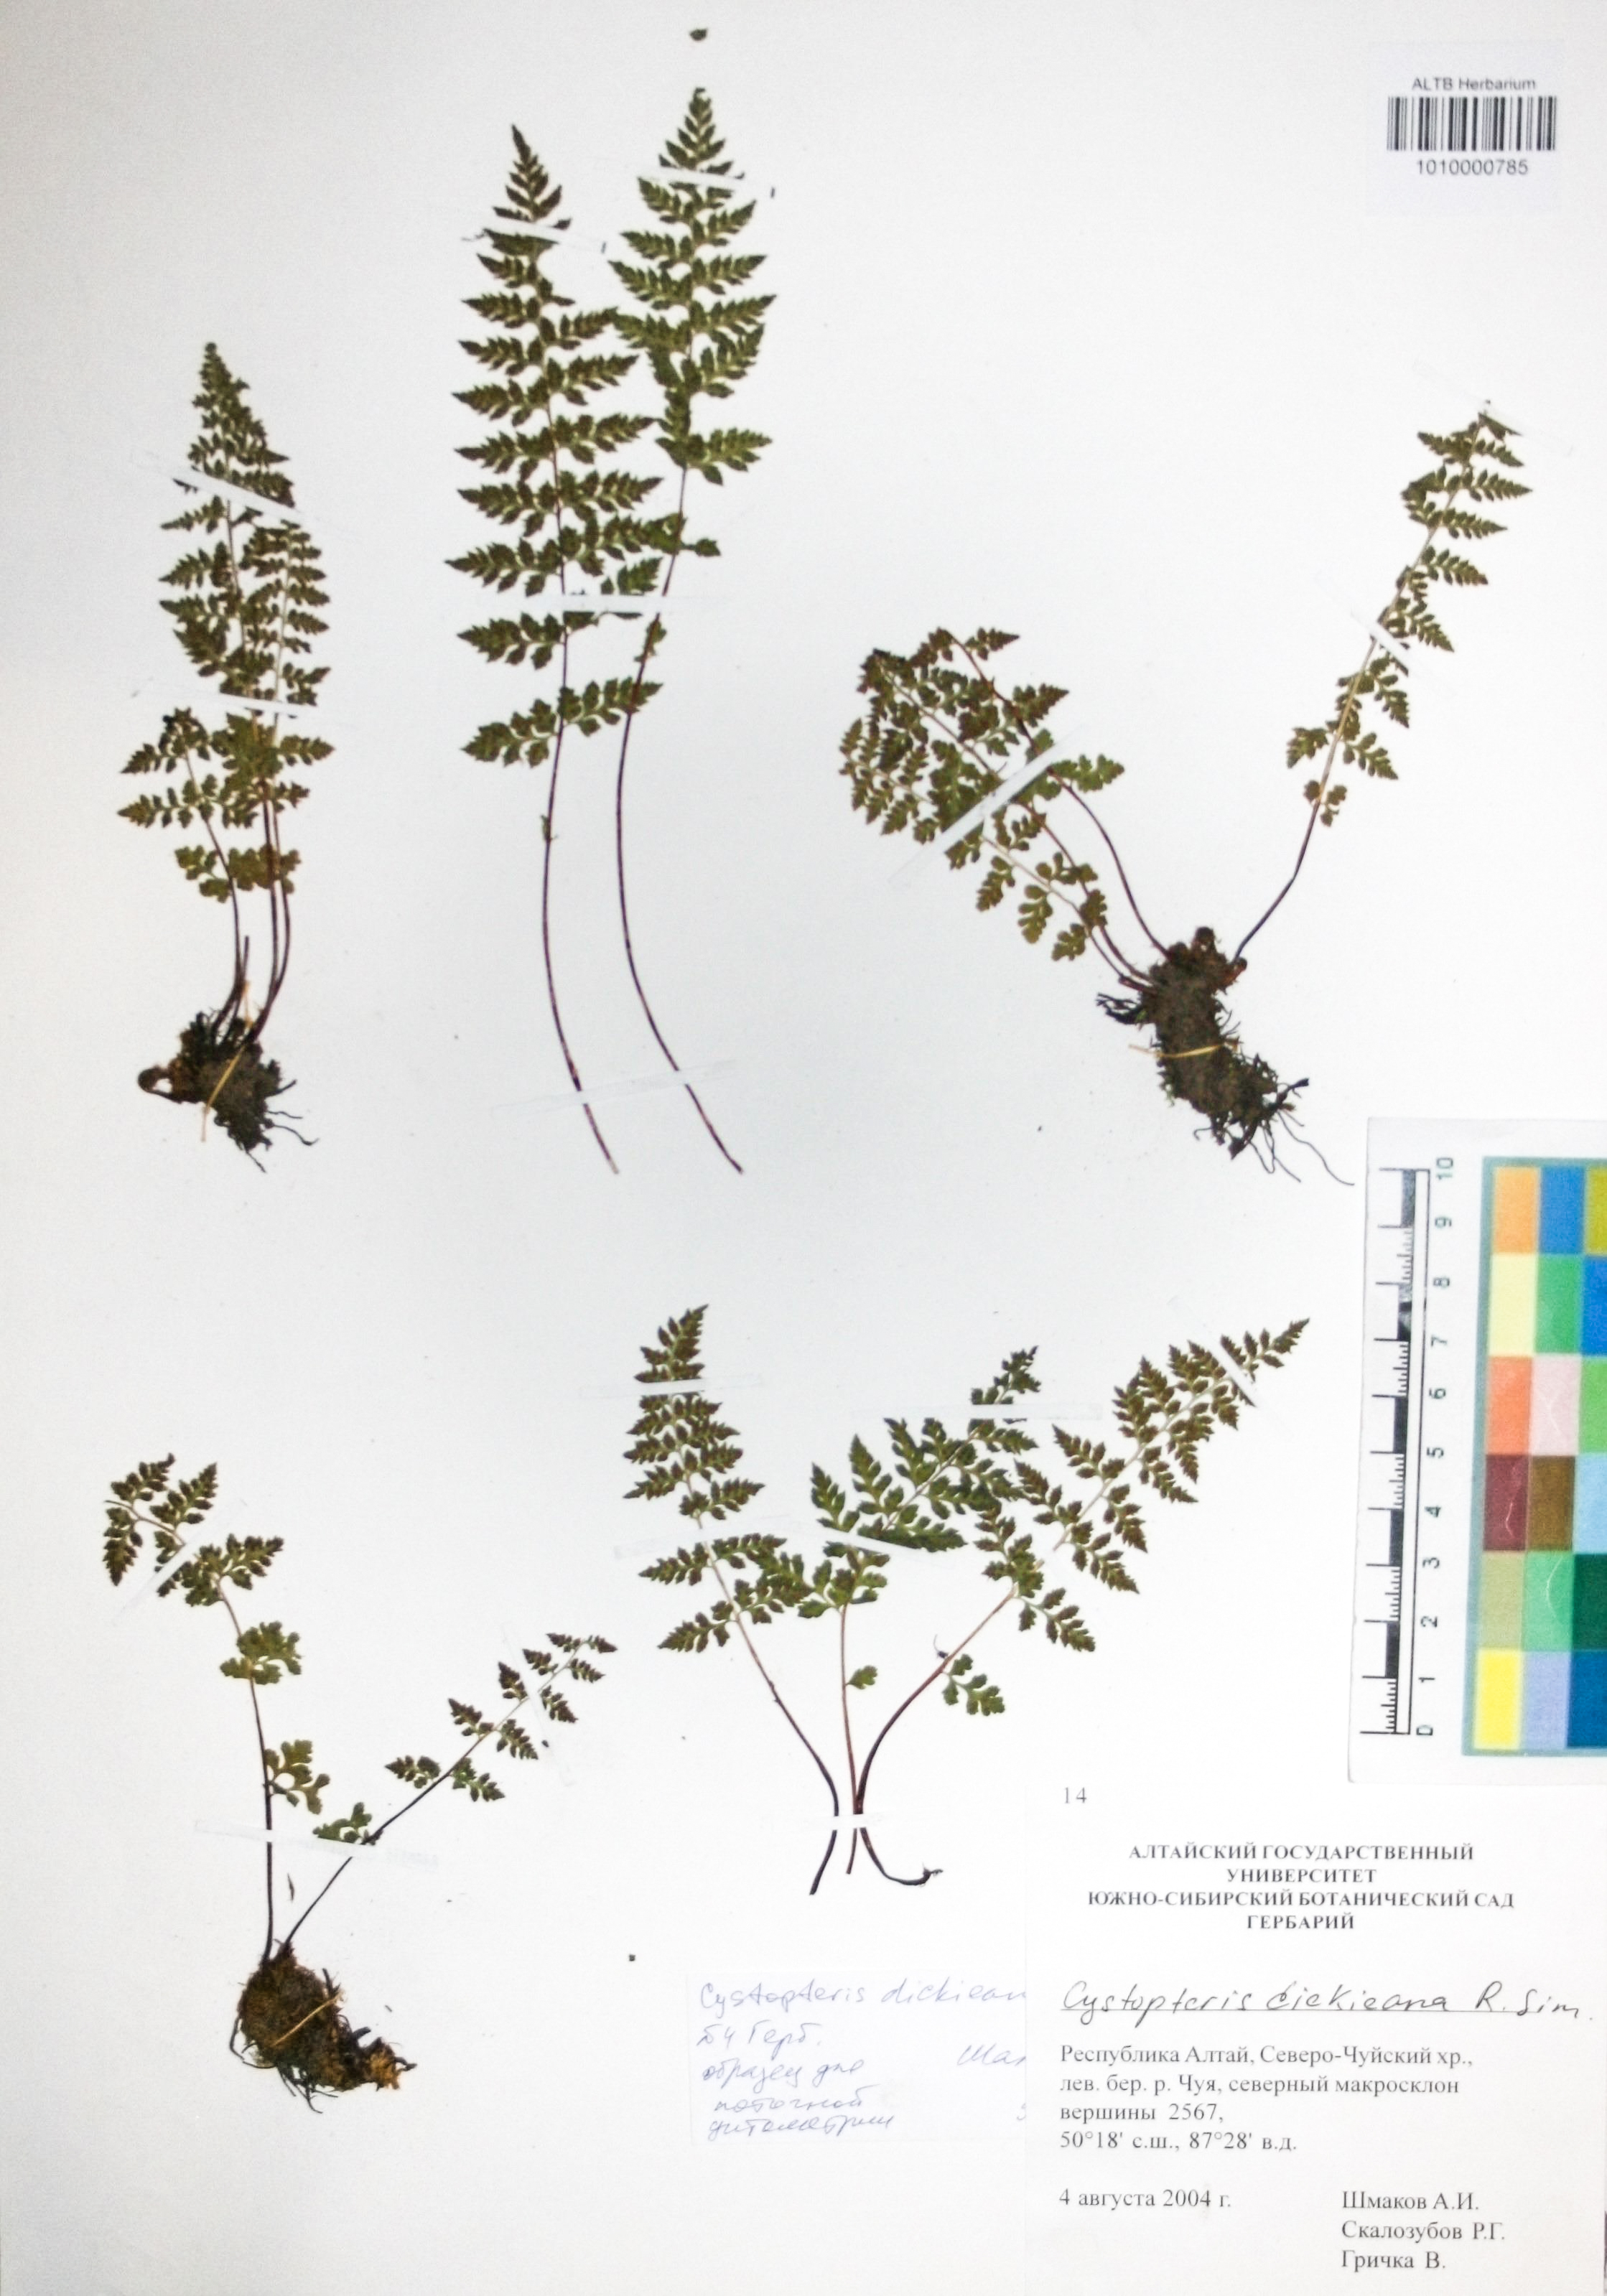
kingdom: Plantae
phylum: Tracheophyta
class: Polypodiopsida
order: Polypodiales
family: Cystopteridaceae
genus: Cystopteris
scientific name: Cystopteris dickieana
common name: Dickie's bladder-fern
